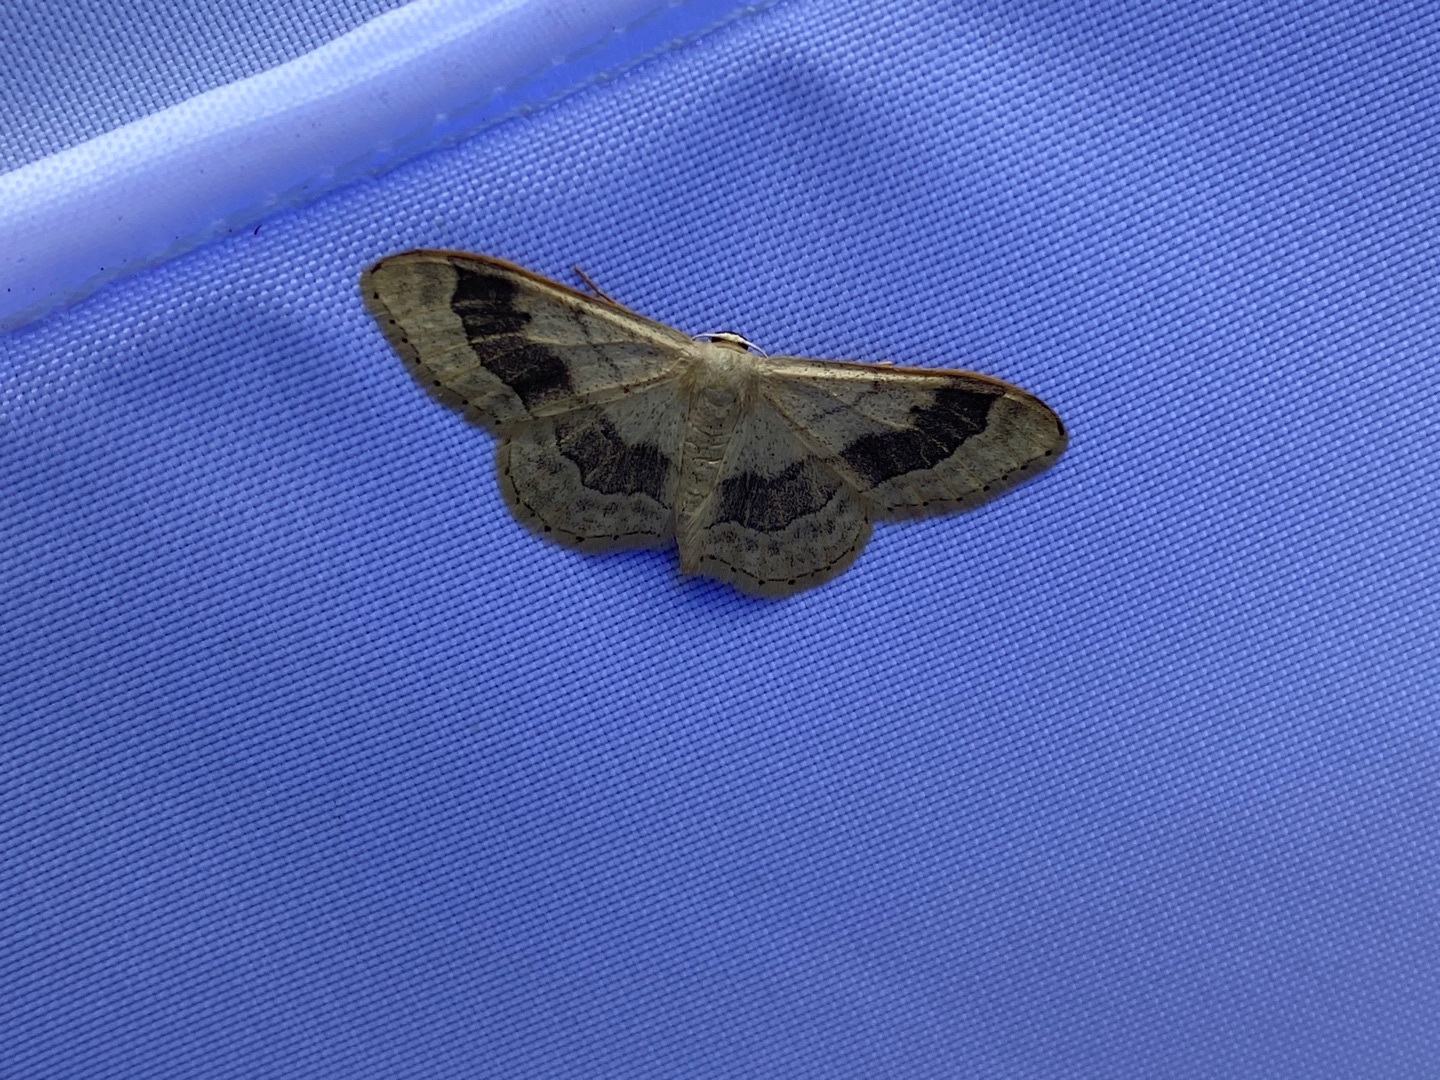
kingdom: Animalia
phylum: Arthropoda
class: Insecta
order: Lepidoptera
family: Geometridae
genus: Idaea
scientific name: Idaea aversata
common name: Vinkelstreget løvmåler
